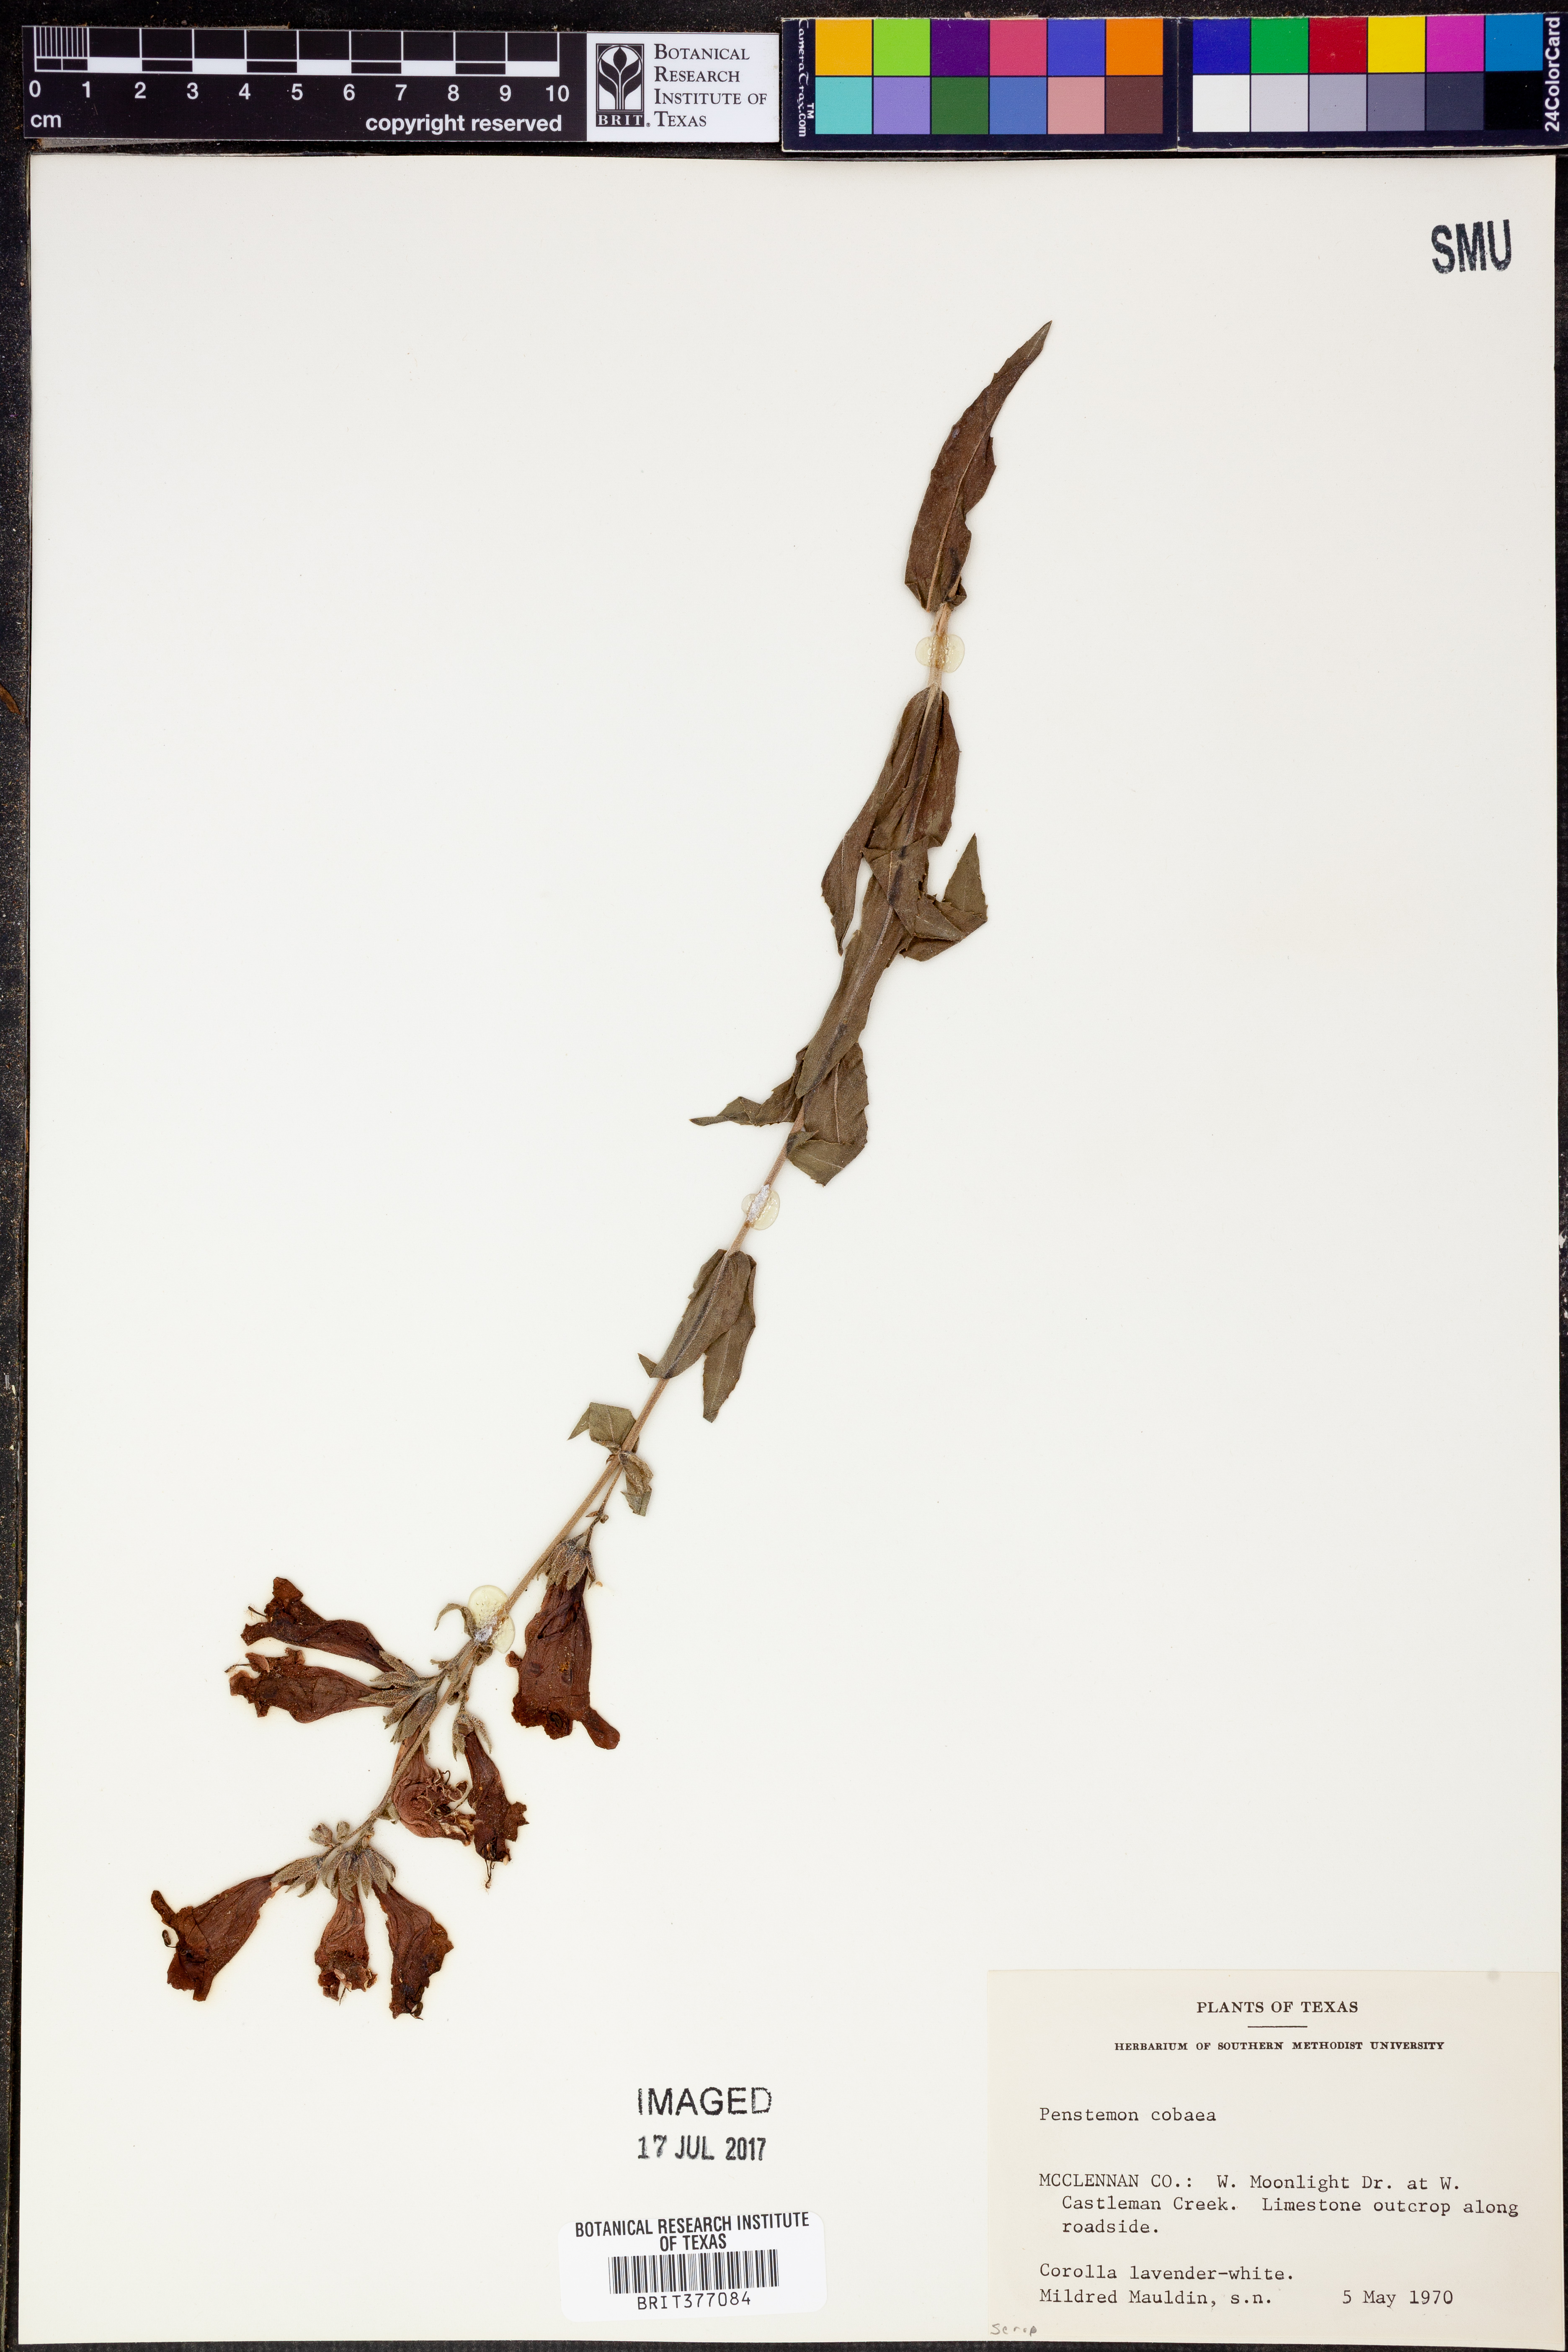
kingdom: Plantae
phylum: Tracheophyta
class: Magnoliopsida
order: Lamiales
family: Plantaginaceae
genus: Penstemon
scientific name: Penstemon cobaea
